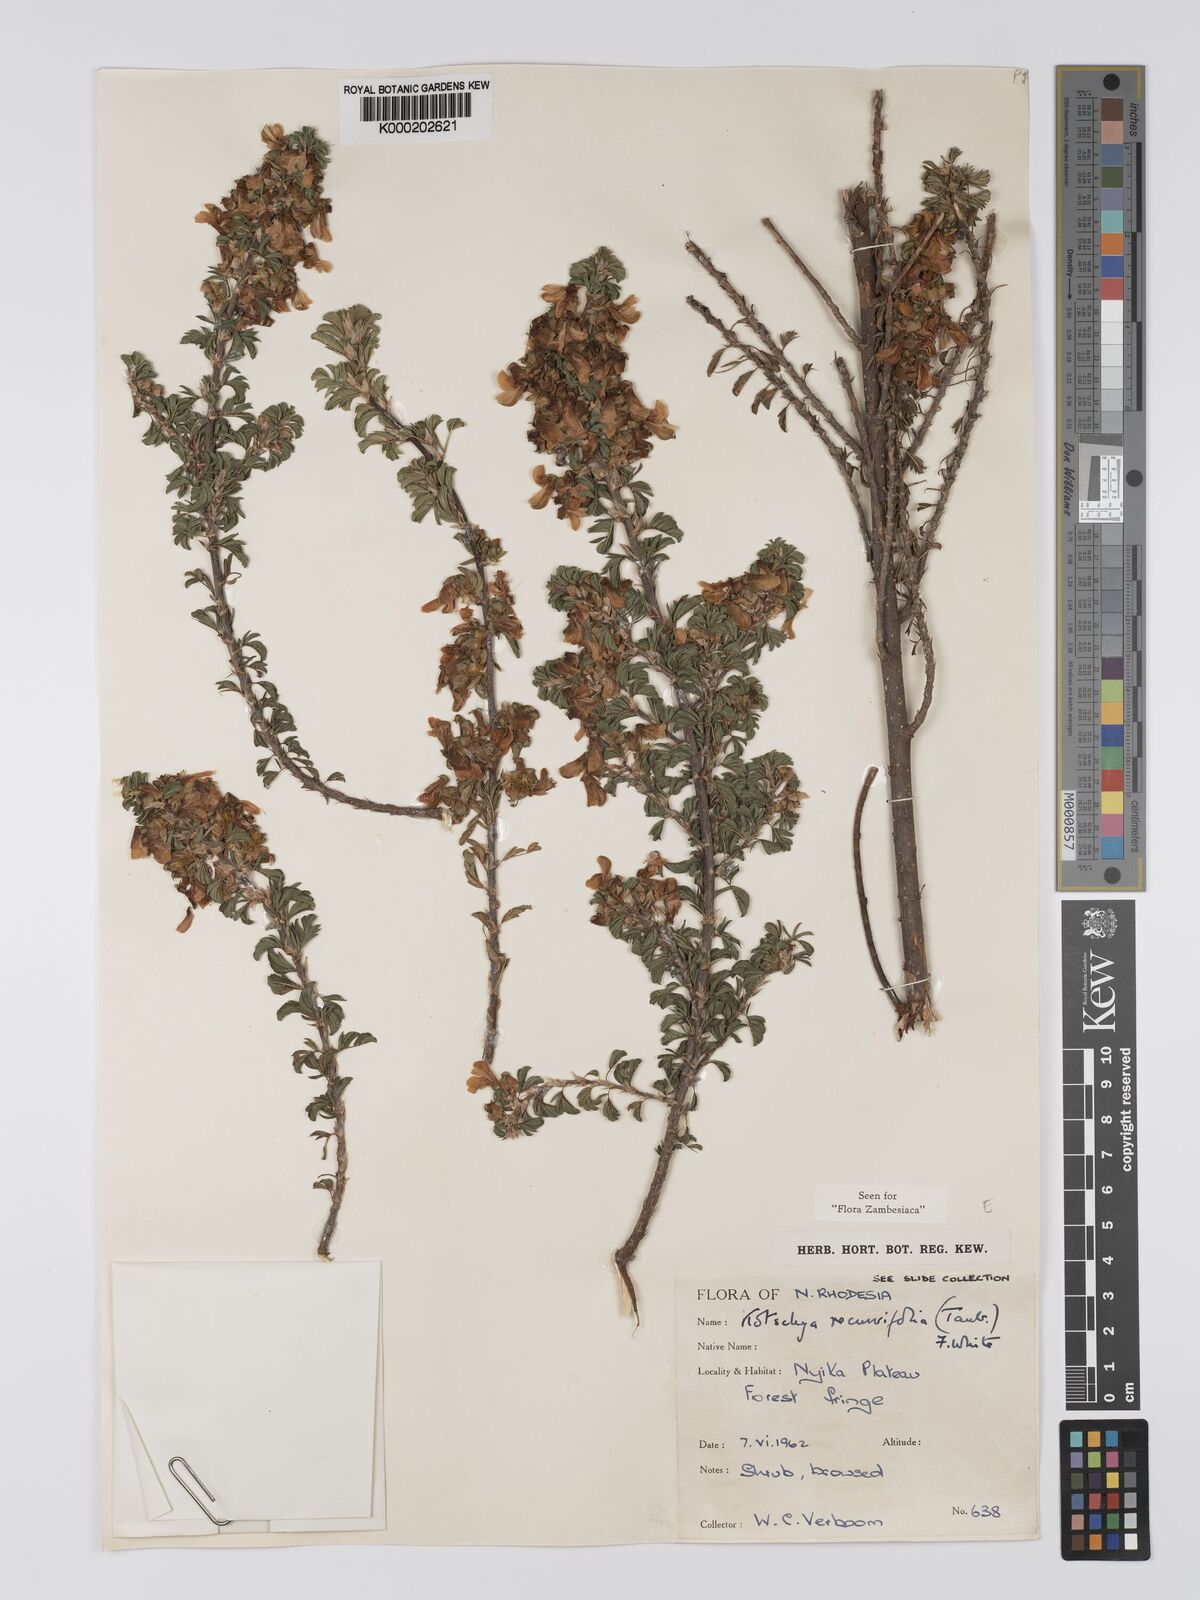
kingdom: Plantae
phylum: Tracheophyta
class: Magnoliopsida
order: Fabales
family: Fabaceae
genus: Kotschya
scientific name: Kotschya recurvifolia
